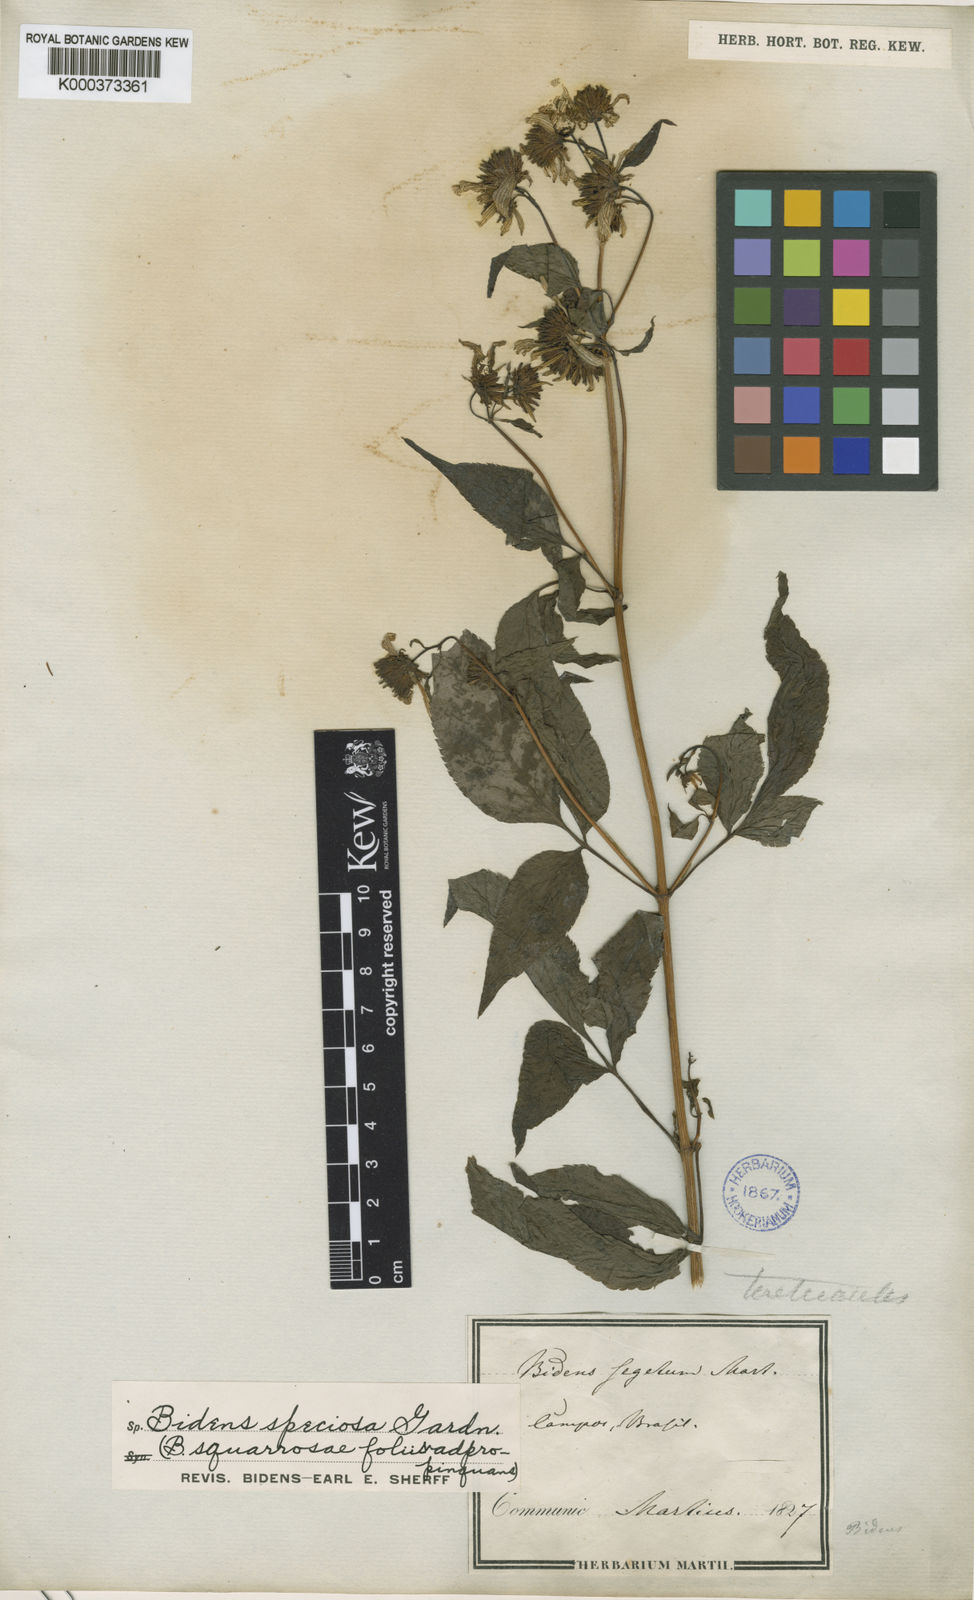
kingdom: Plantae
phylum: Tracheophyta
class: Magnoliopsida
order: Asterales
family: Asteraceae
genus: Bidens
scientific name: Bidens segetum
